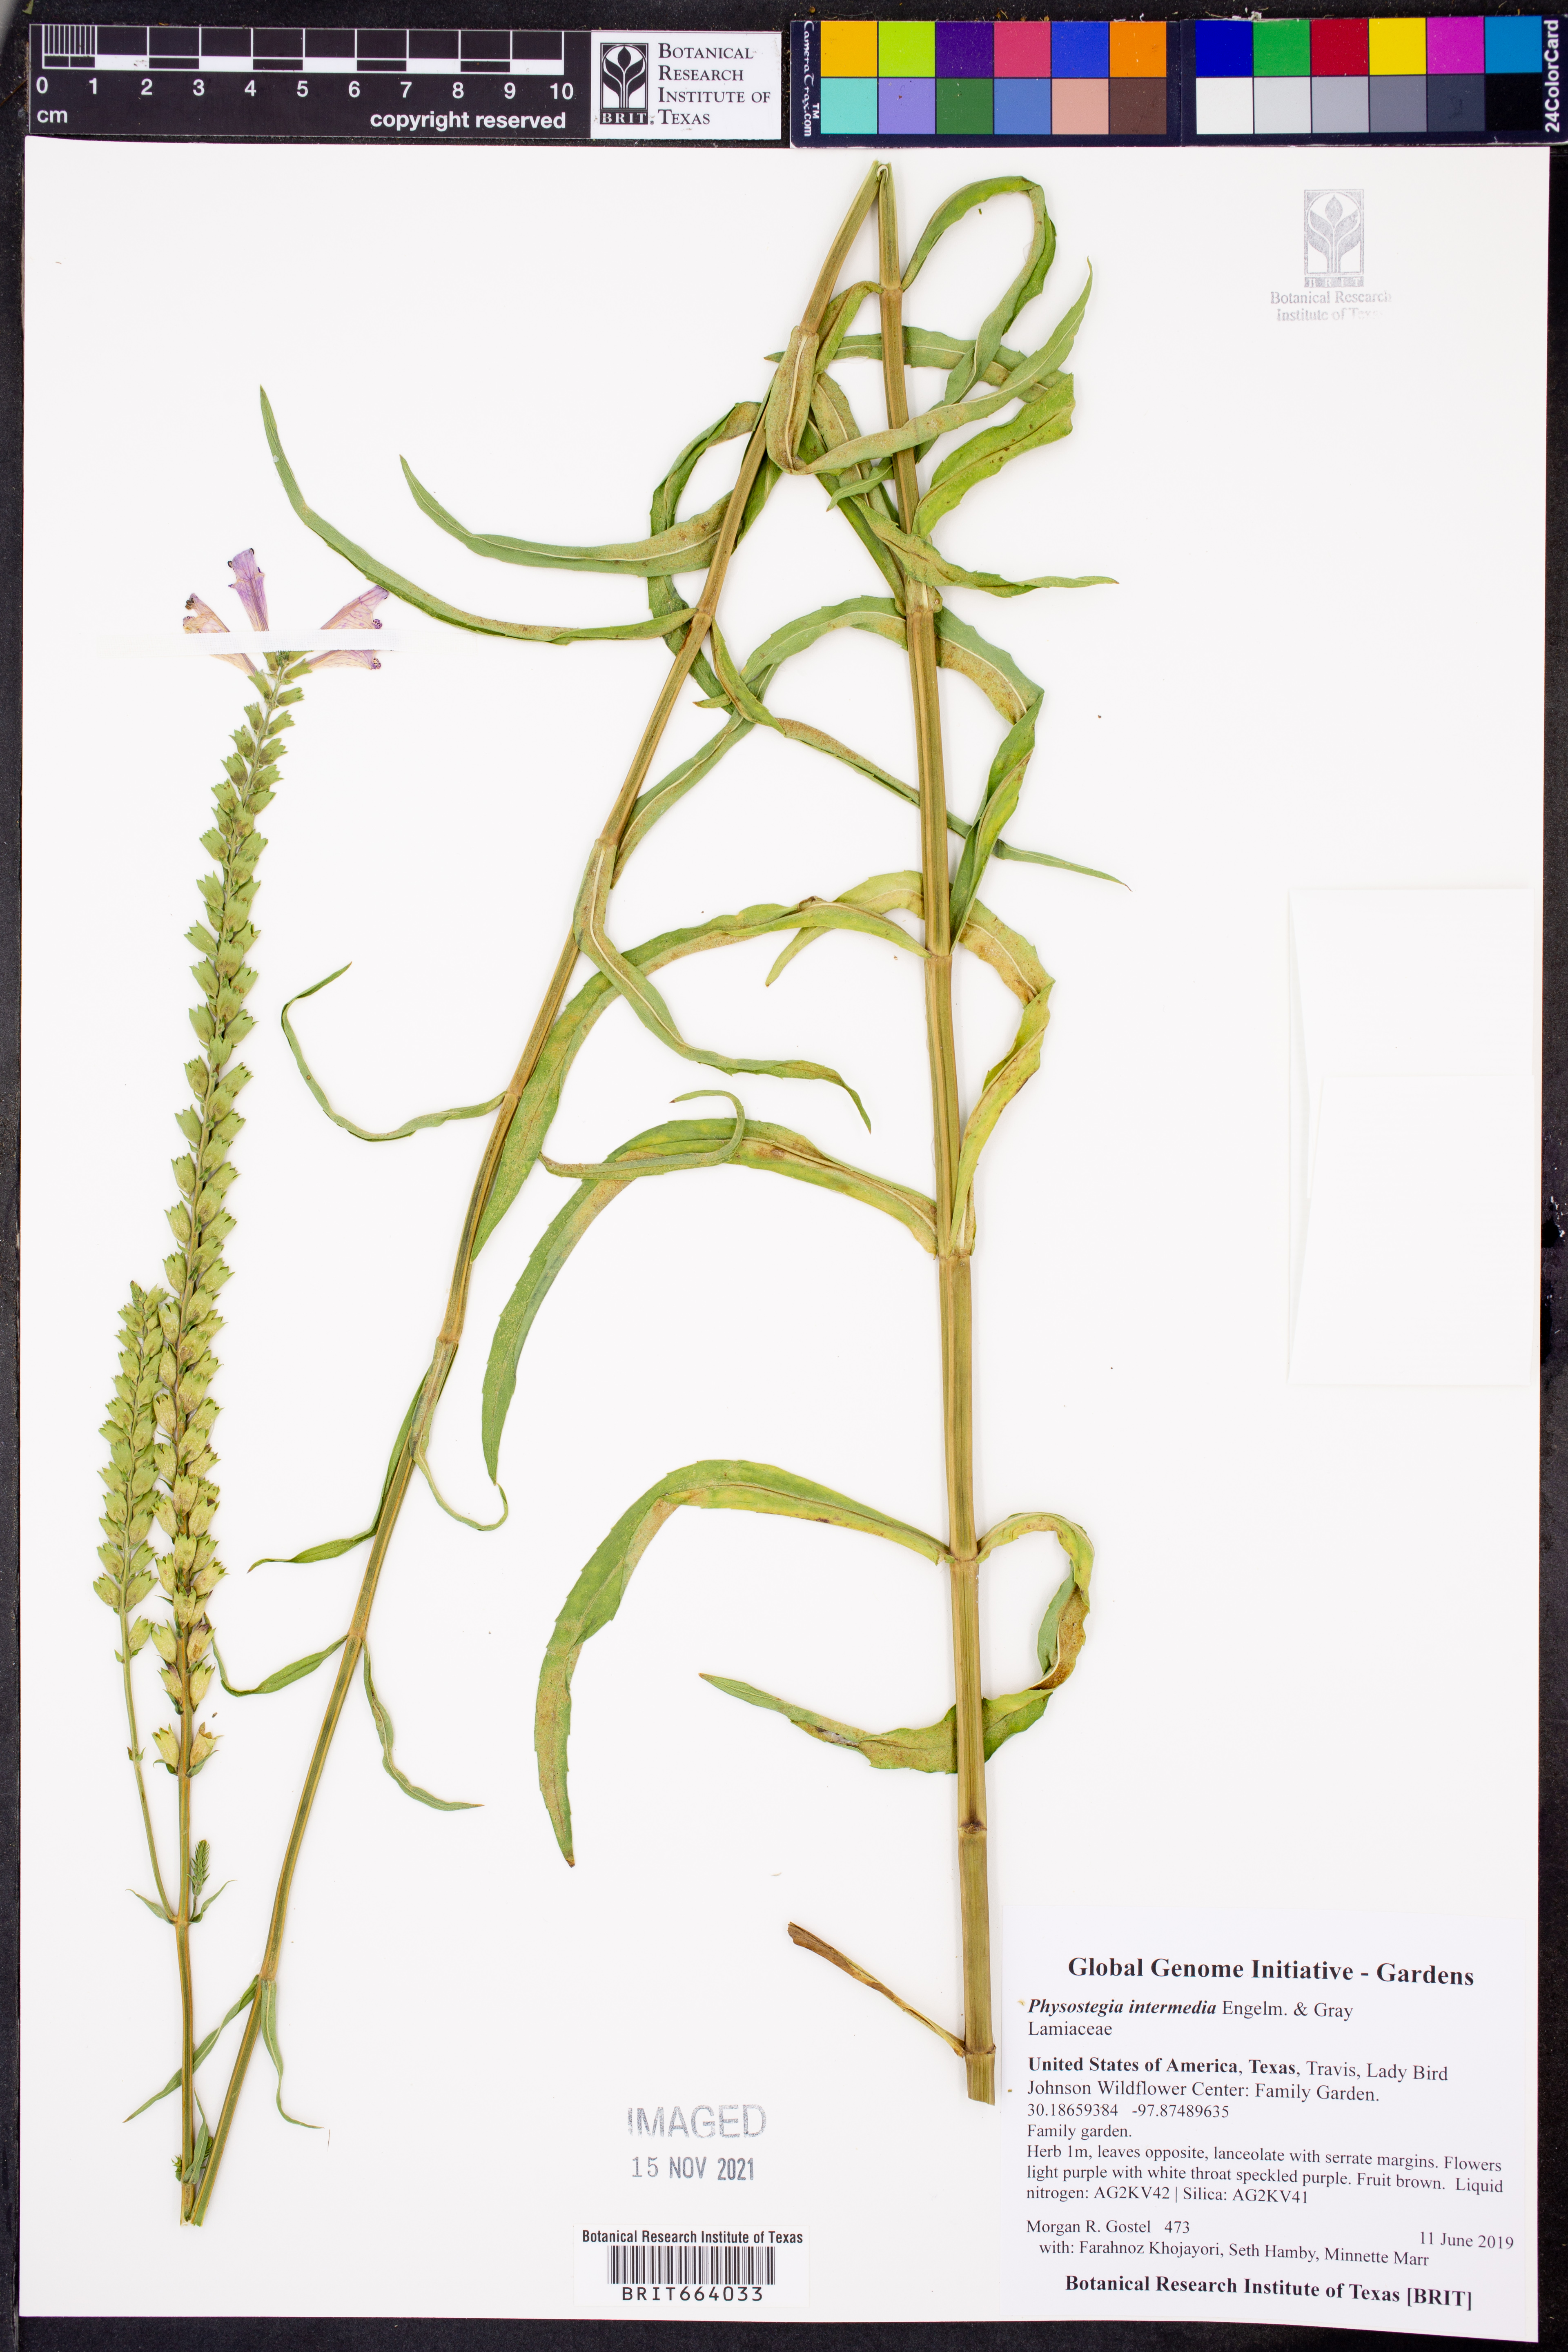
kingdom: Plantae
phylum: Tracheophyta
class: Magnoliopsida
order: Lamiales
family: Lamiaceae
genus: Physostegia
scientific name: Physostegia intermedia
